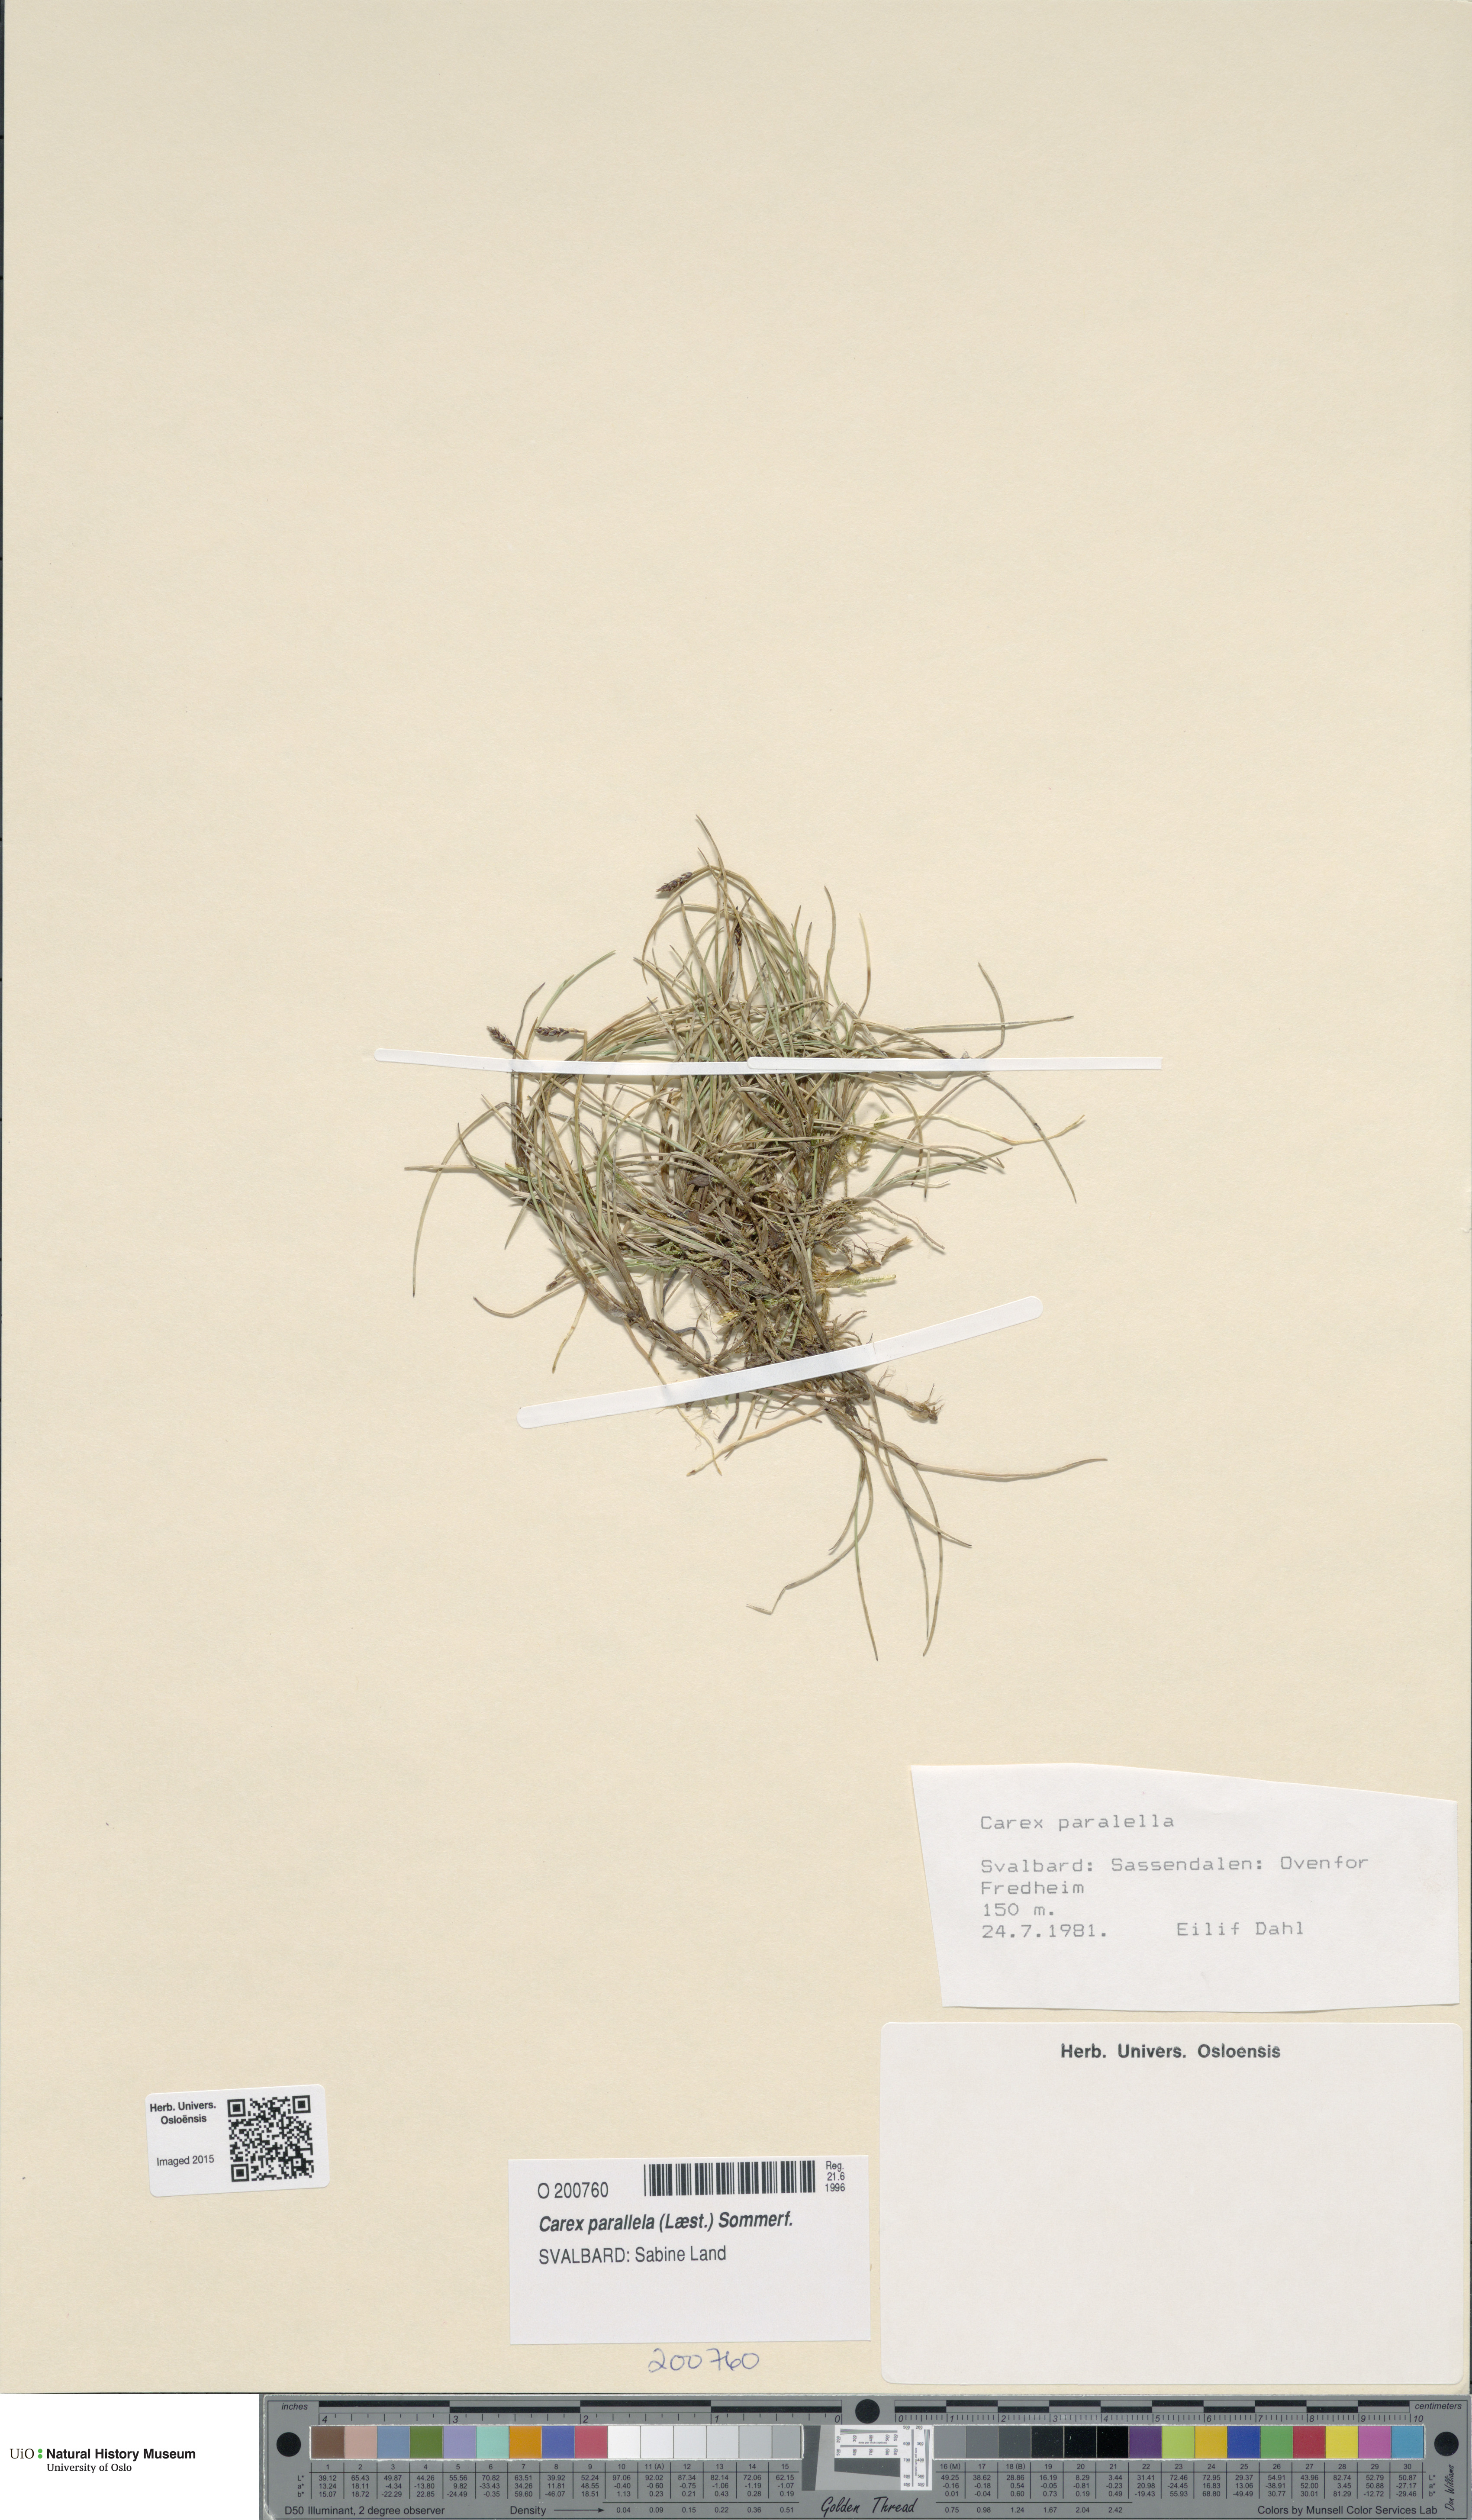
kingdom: Plantae
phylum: Tracheophyta
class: Liliopsida
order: Poales
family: Cyperaceae
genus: Carex
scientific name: Carex parallela
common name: Parallel sedge
